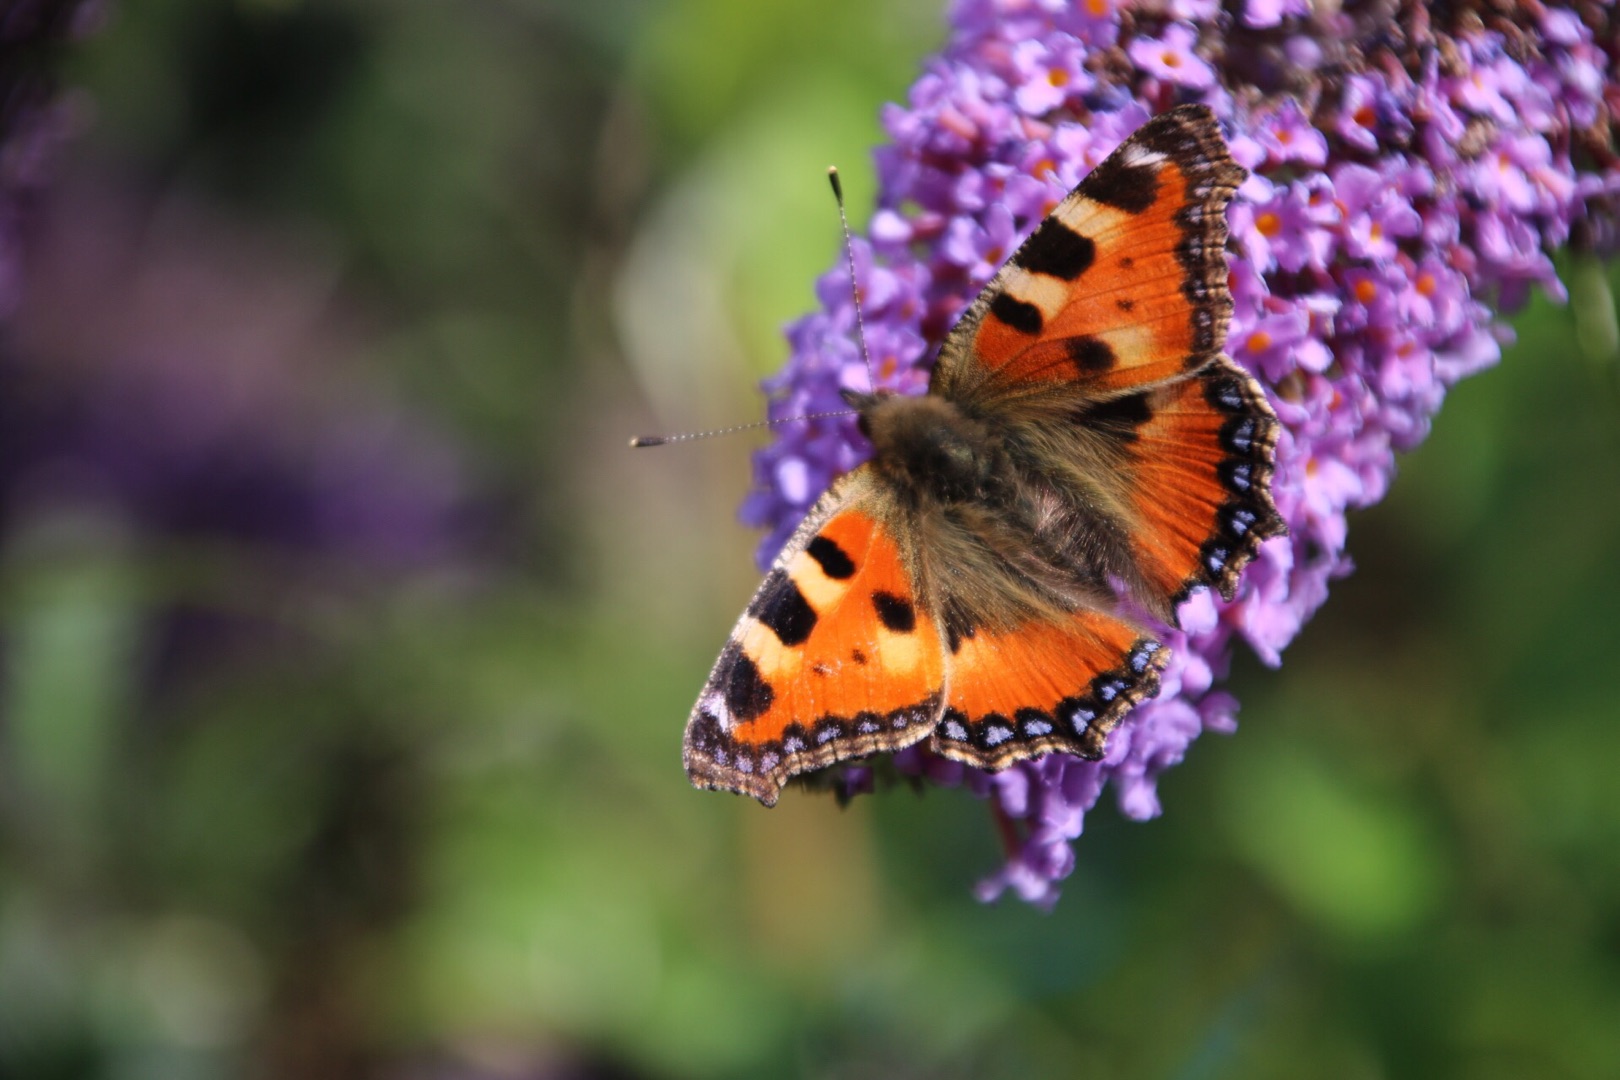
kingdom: Animalia
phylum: Arthropoda
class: Insecta
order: Lepidoptera
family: Nymphalidae
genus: Aglais
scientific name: Aglais urticae
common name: Nældens takvinge
